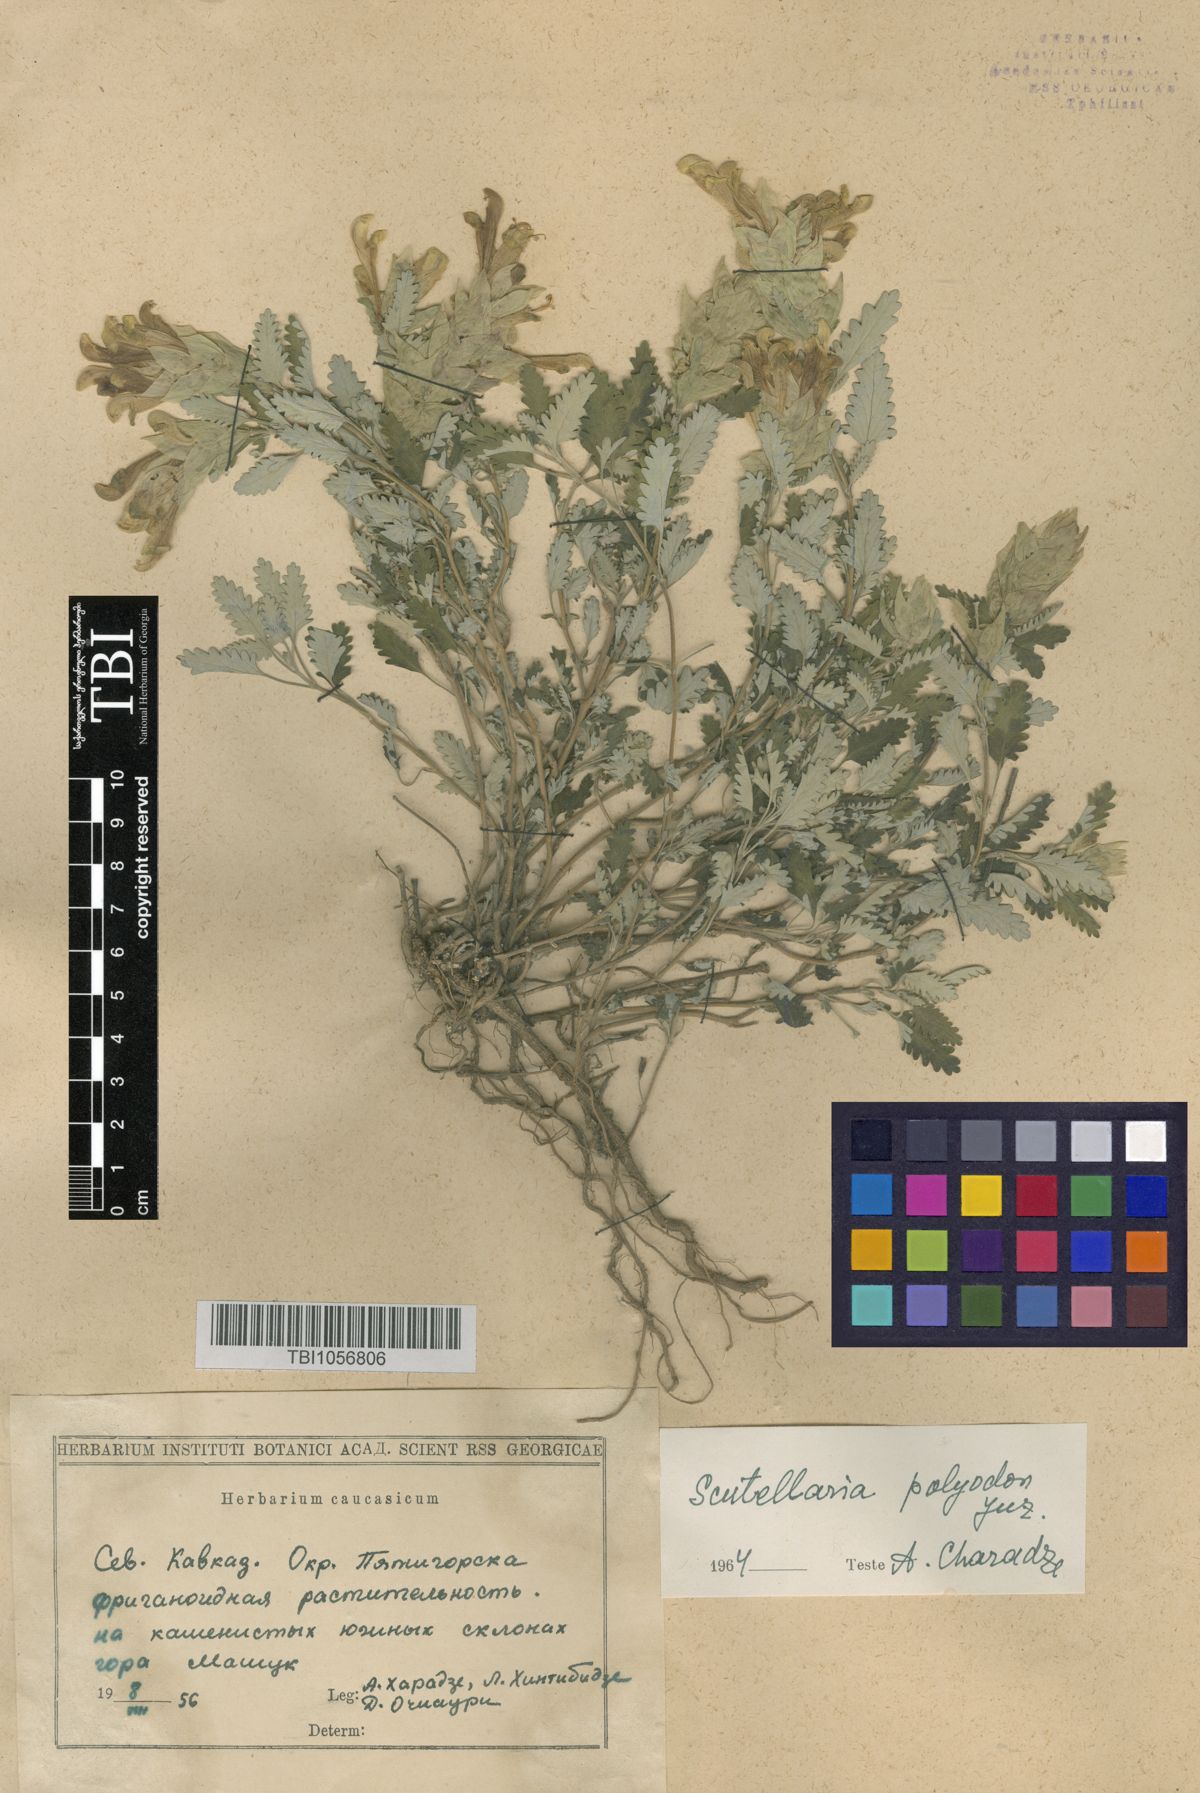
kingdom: Plantae
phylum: Tracheophyta
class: Magnoliopsida
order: Lamiales
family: Lamiaceae
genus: Scutellaria
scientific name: Scutellaria caucasica
